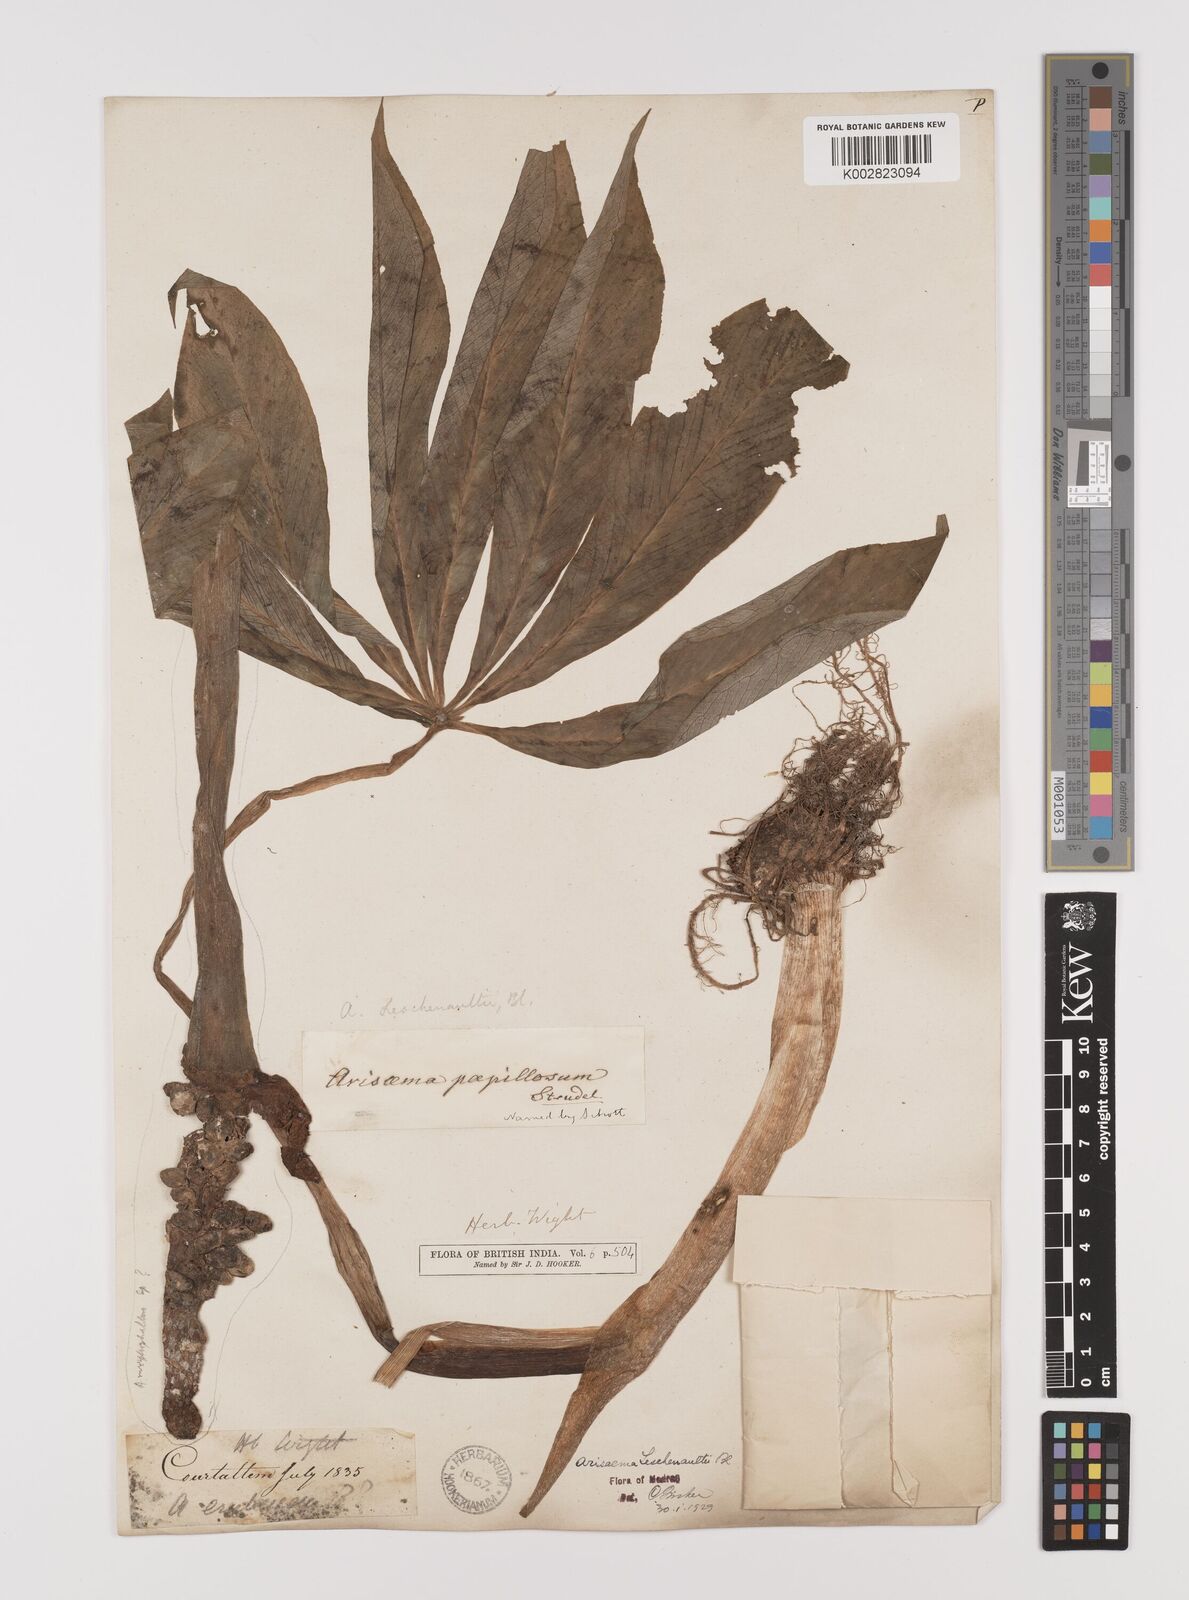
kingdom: Plantae
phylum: Tracheophyta
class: Liliopsida
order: Alismatales
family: Araceae
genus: Arisaema
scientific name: Arisaema leschenaultii
